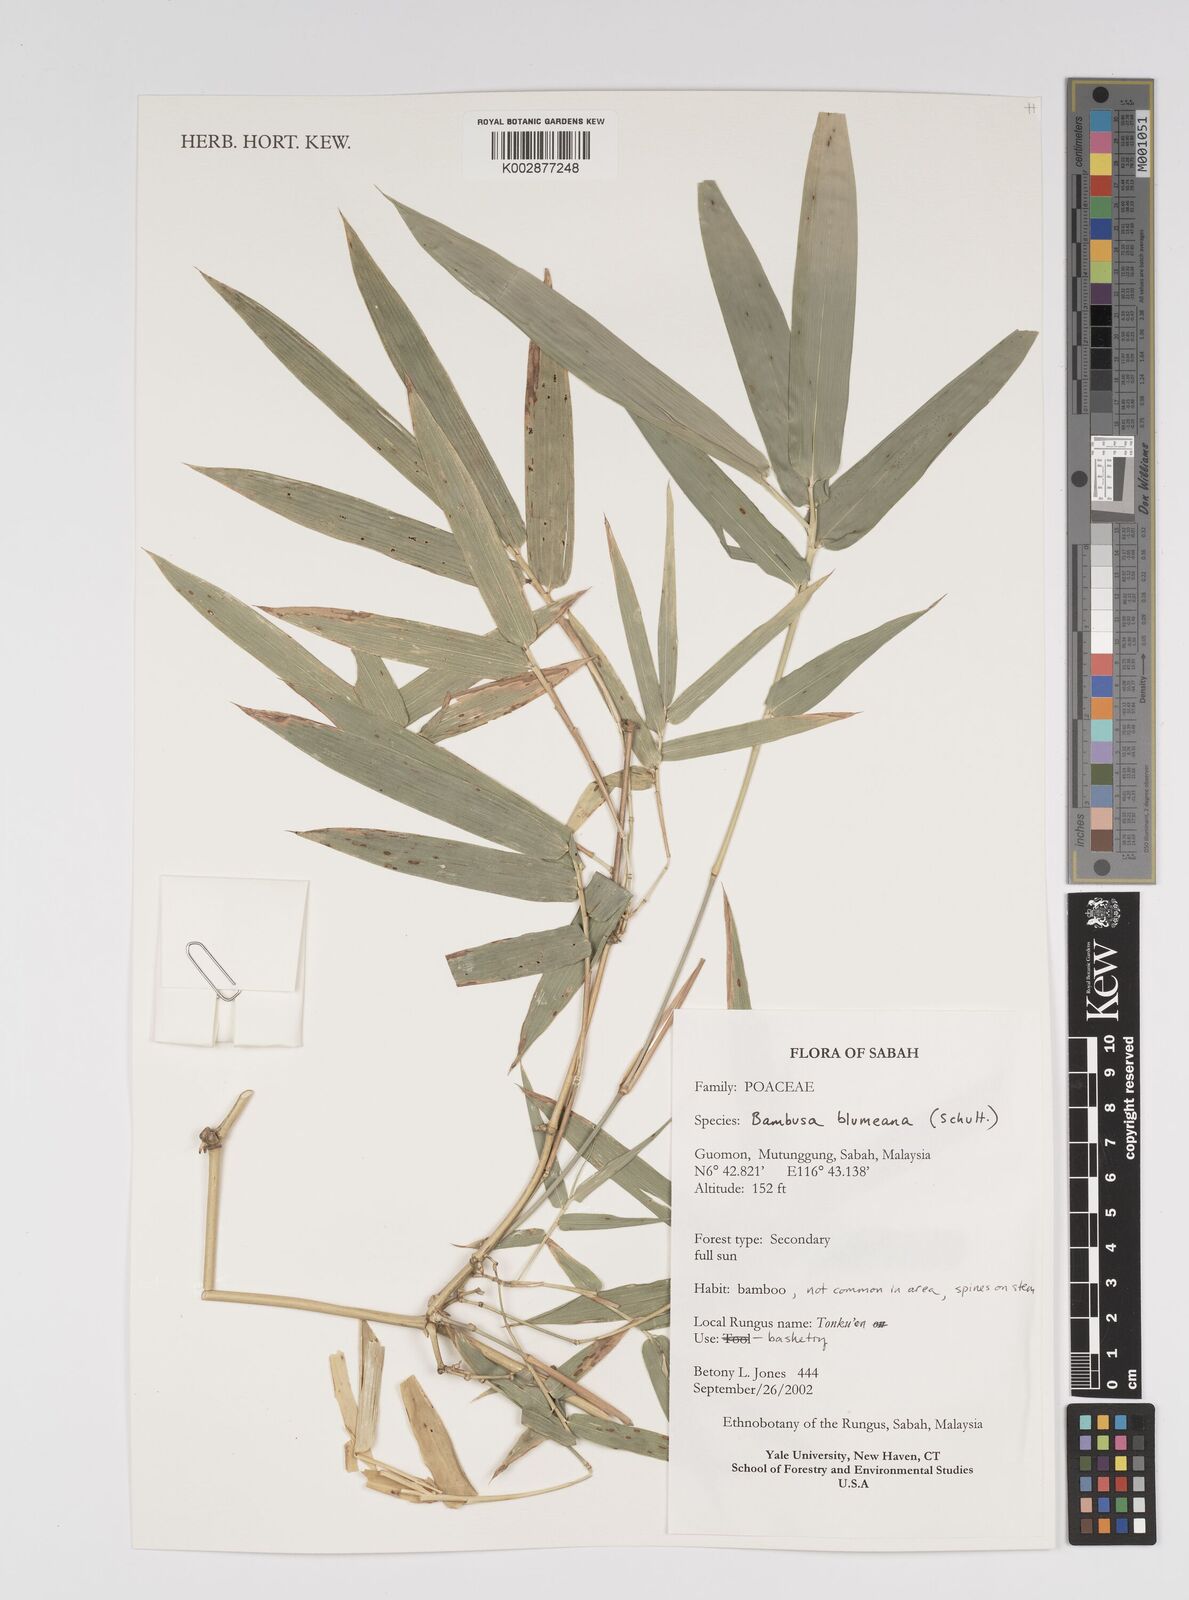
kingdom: Plantae
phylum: Tracheophyta
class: Liliopsida
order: Poales
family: Poaceae
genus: Bambusa
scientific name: Bambusa spinosa
